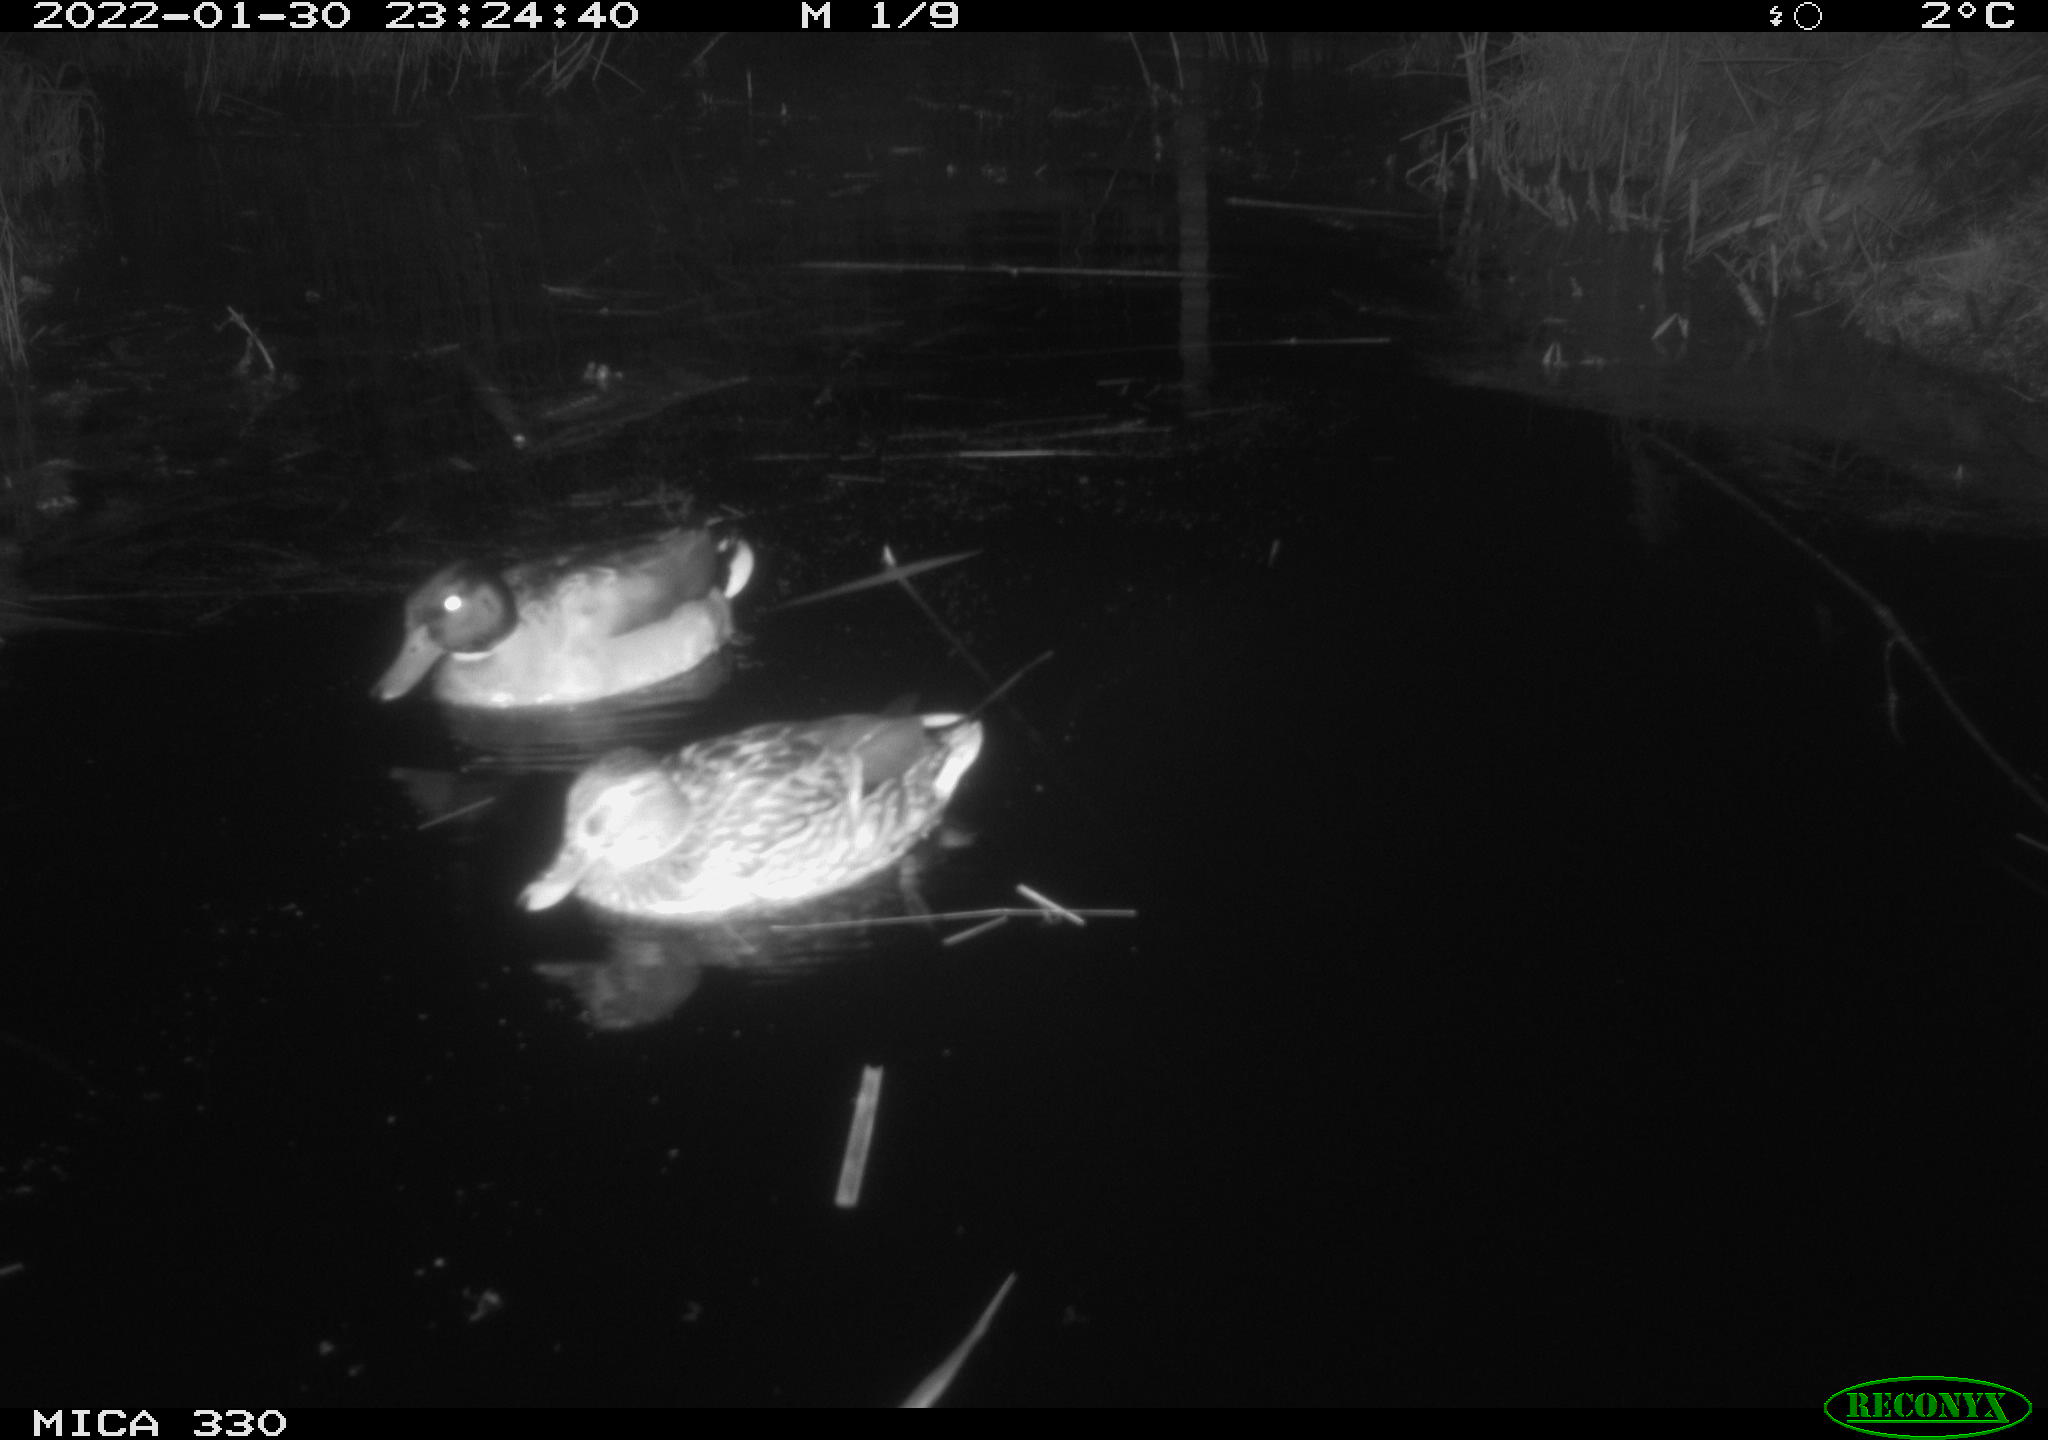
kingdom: Animalia
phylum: Chordata
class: Aves
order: Anseriformes
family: Anatidae
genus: Anas
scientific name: Anas platyrhynchos
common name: Mallard
